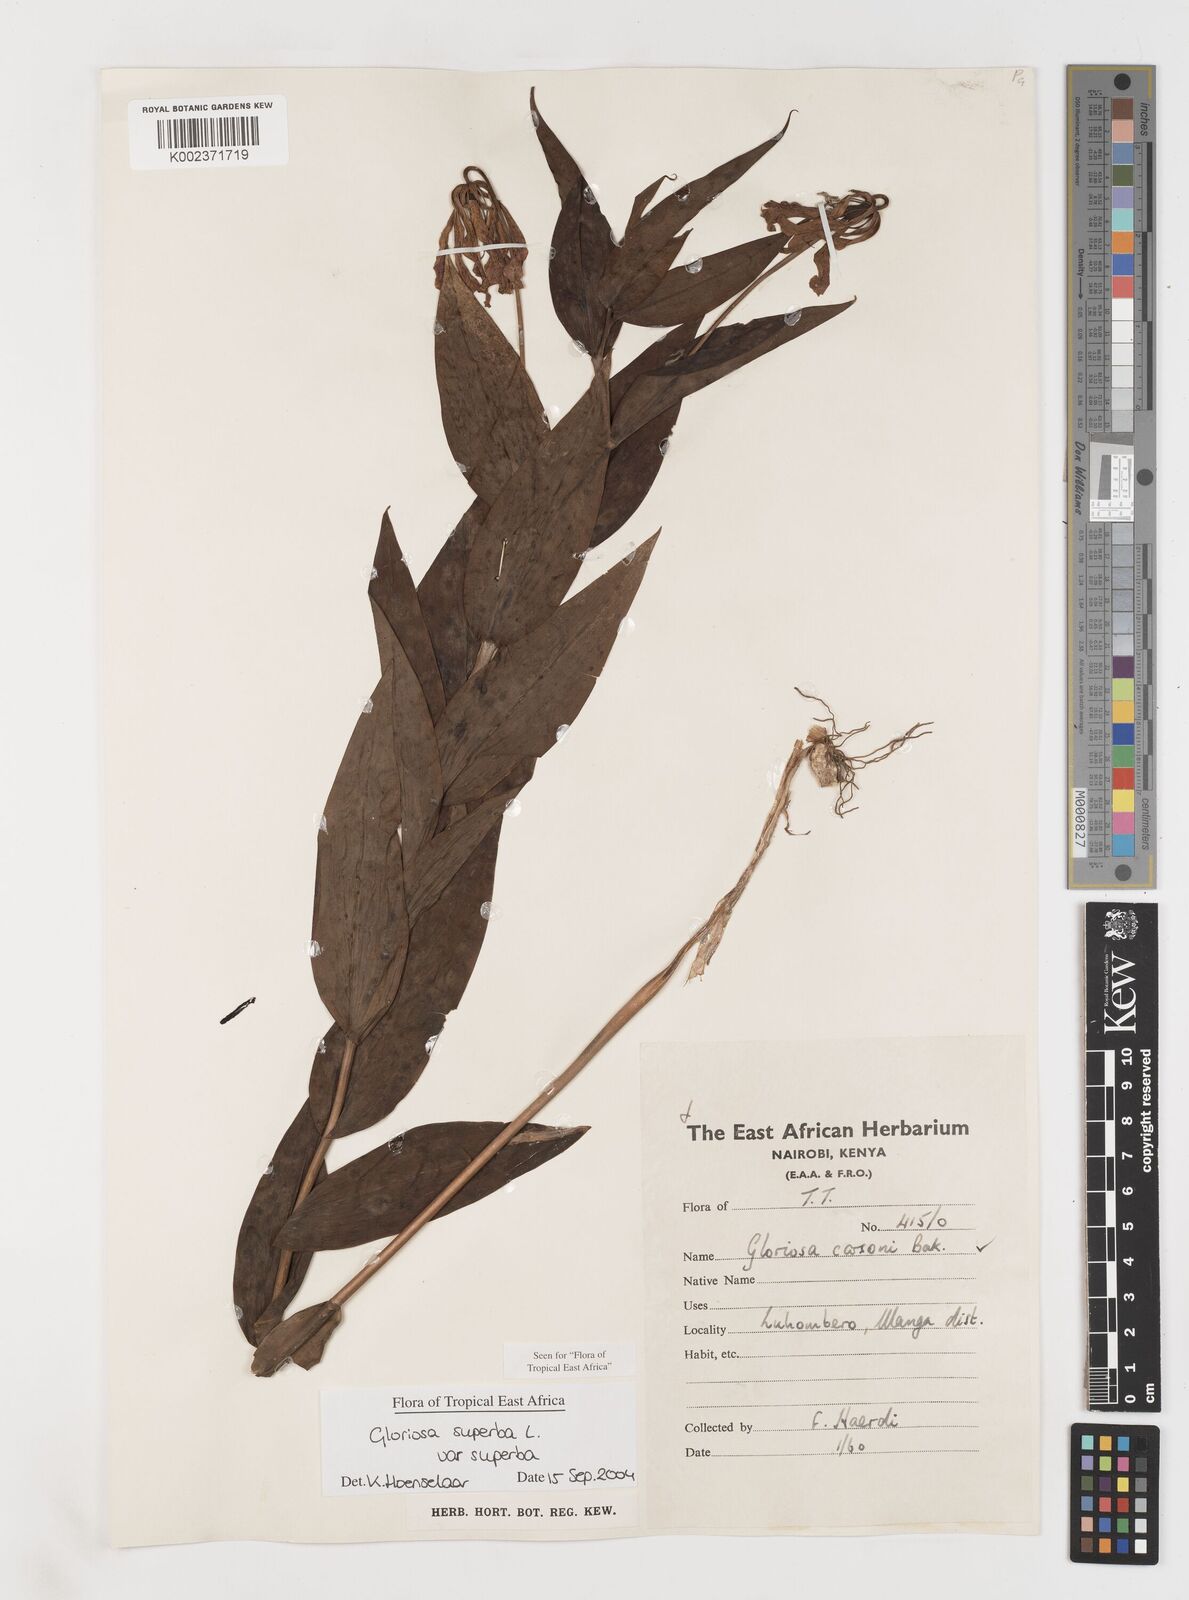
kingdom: Plantae
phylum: Tracheophyta
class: Liliopsida
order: Liliales
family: Colchicaceae
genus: Gloriosa
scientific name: Gloriosa simplex
